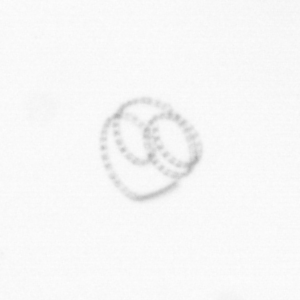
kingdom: Chromista
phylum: Ochrophyta
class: Bacillariophyceae
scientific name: Bacillariophyceae
